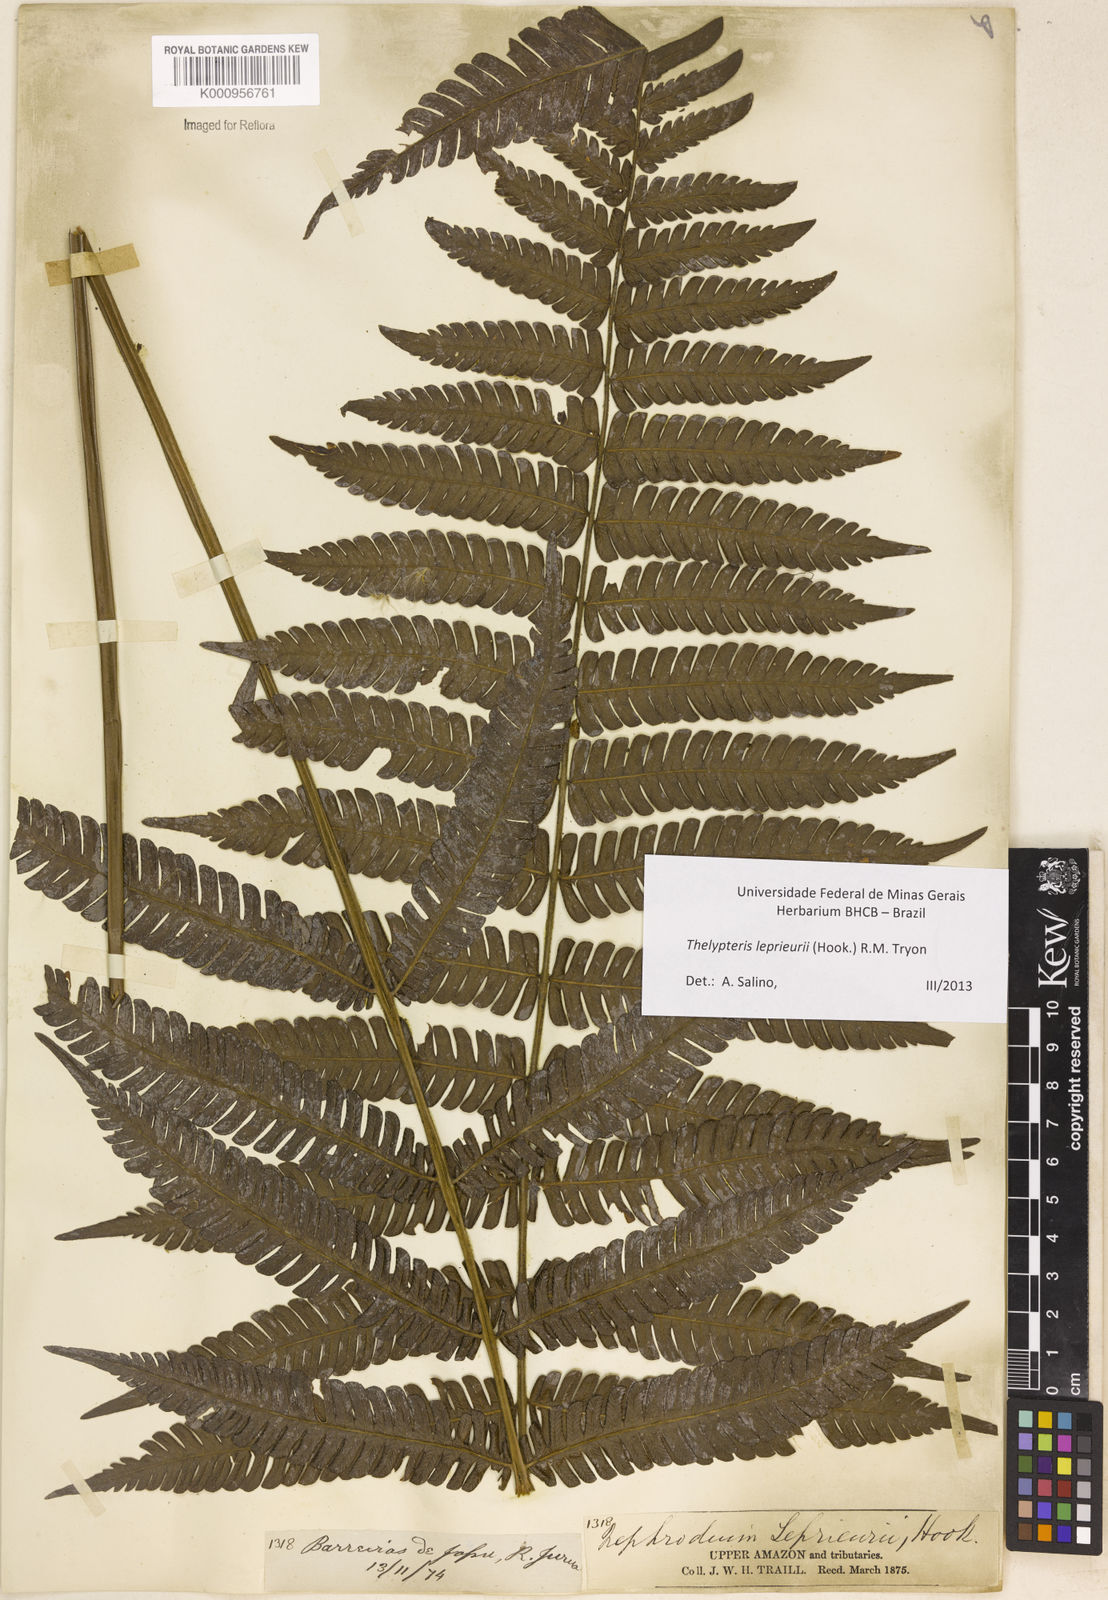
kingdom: Plantae
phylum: Tracheophyta
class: Polypodiopsida
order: Polypodiales
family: Thelypteridaceae
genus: Steiropteris
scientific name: Steiropteris leprieurii
